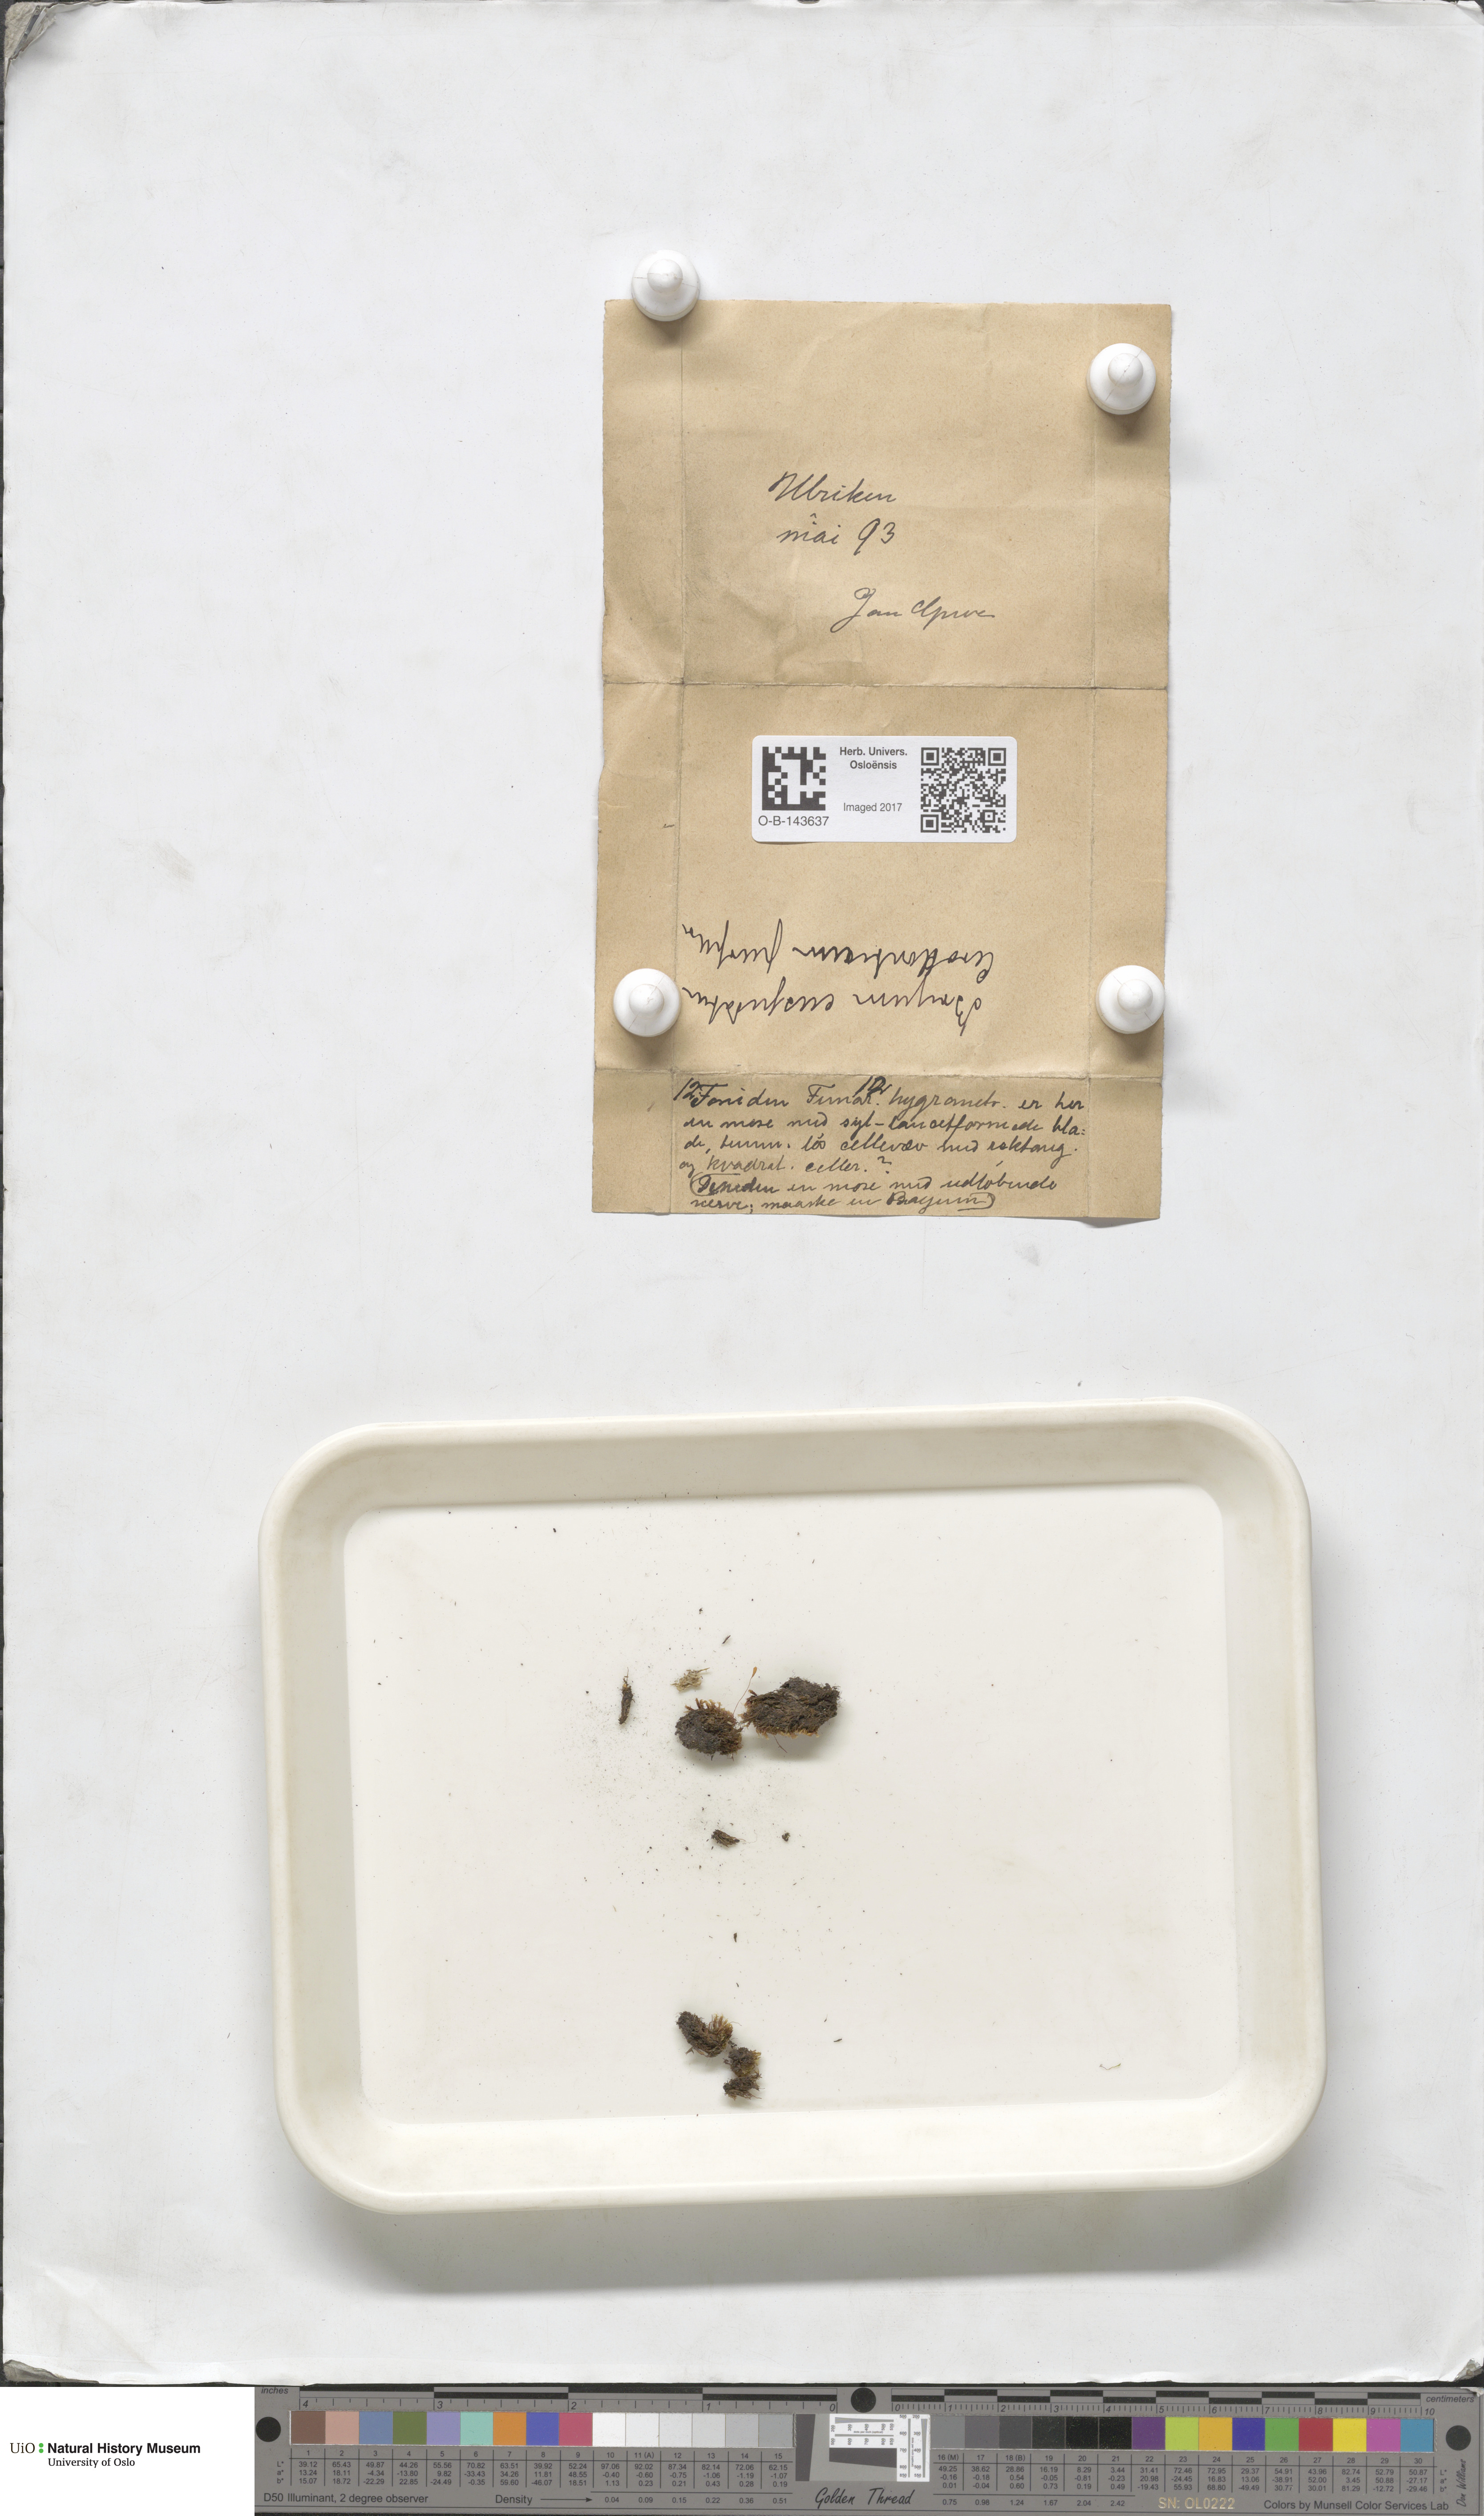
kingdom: Plantae
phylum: Bryophyta
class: Bryopsida
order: Bryales
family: Bryaceae
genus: Bryum
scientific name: Bryum
